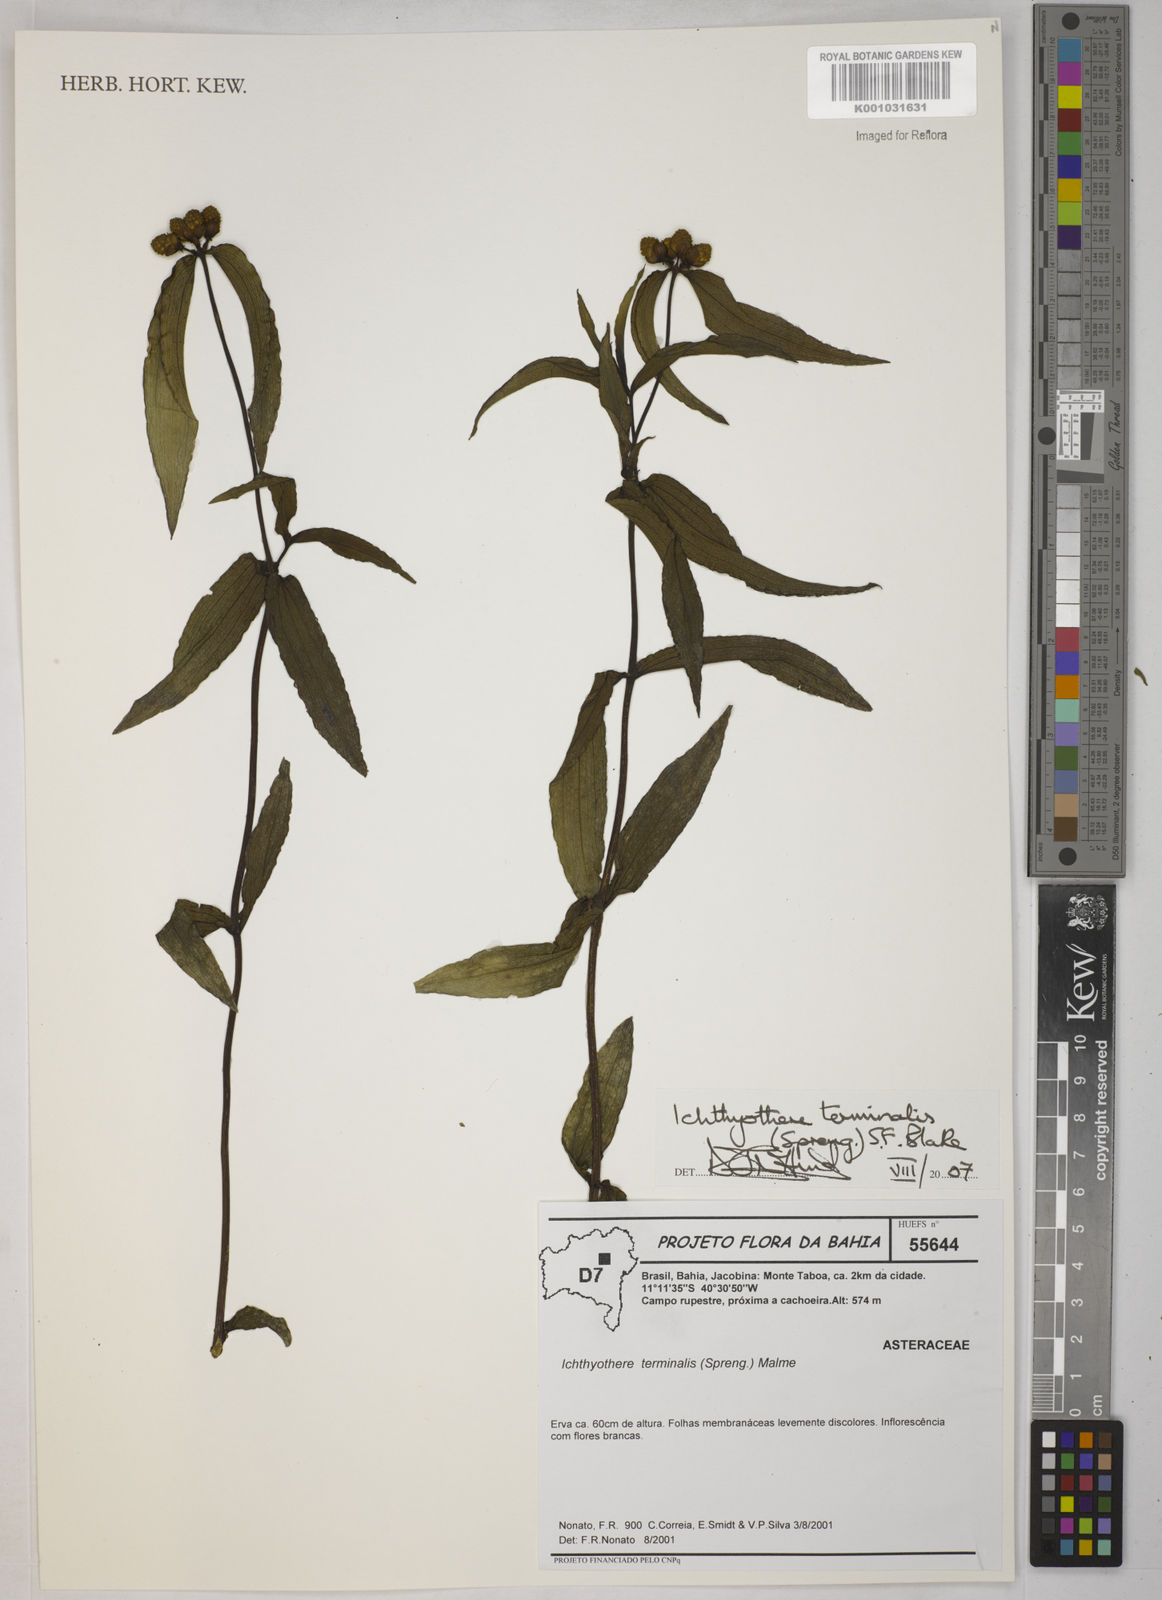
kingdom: Plantae
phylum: Tracheophyta
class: Magnoliopsida
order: Asterales
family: Asteraceae
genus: Ichthyothere
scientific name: Ichthyothere terminalis
